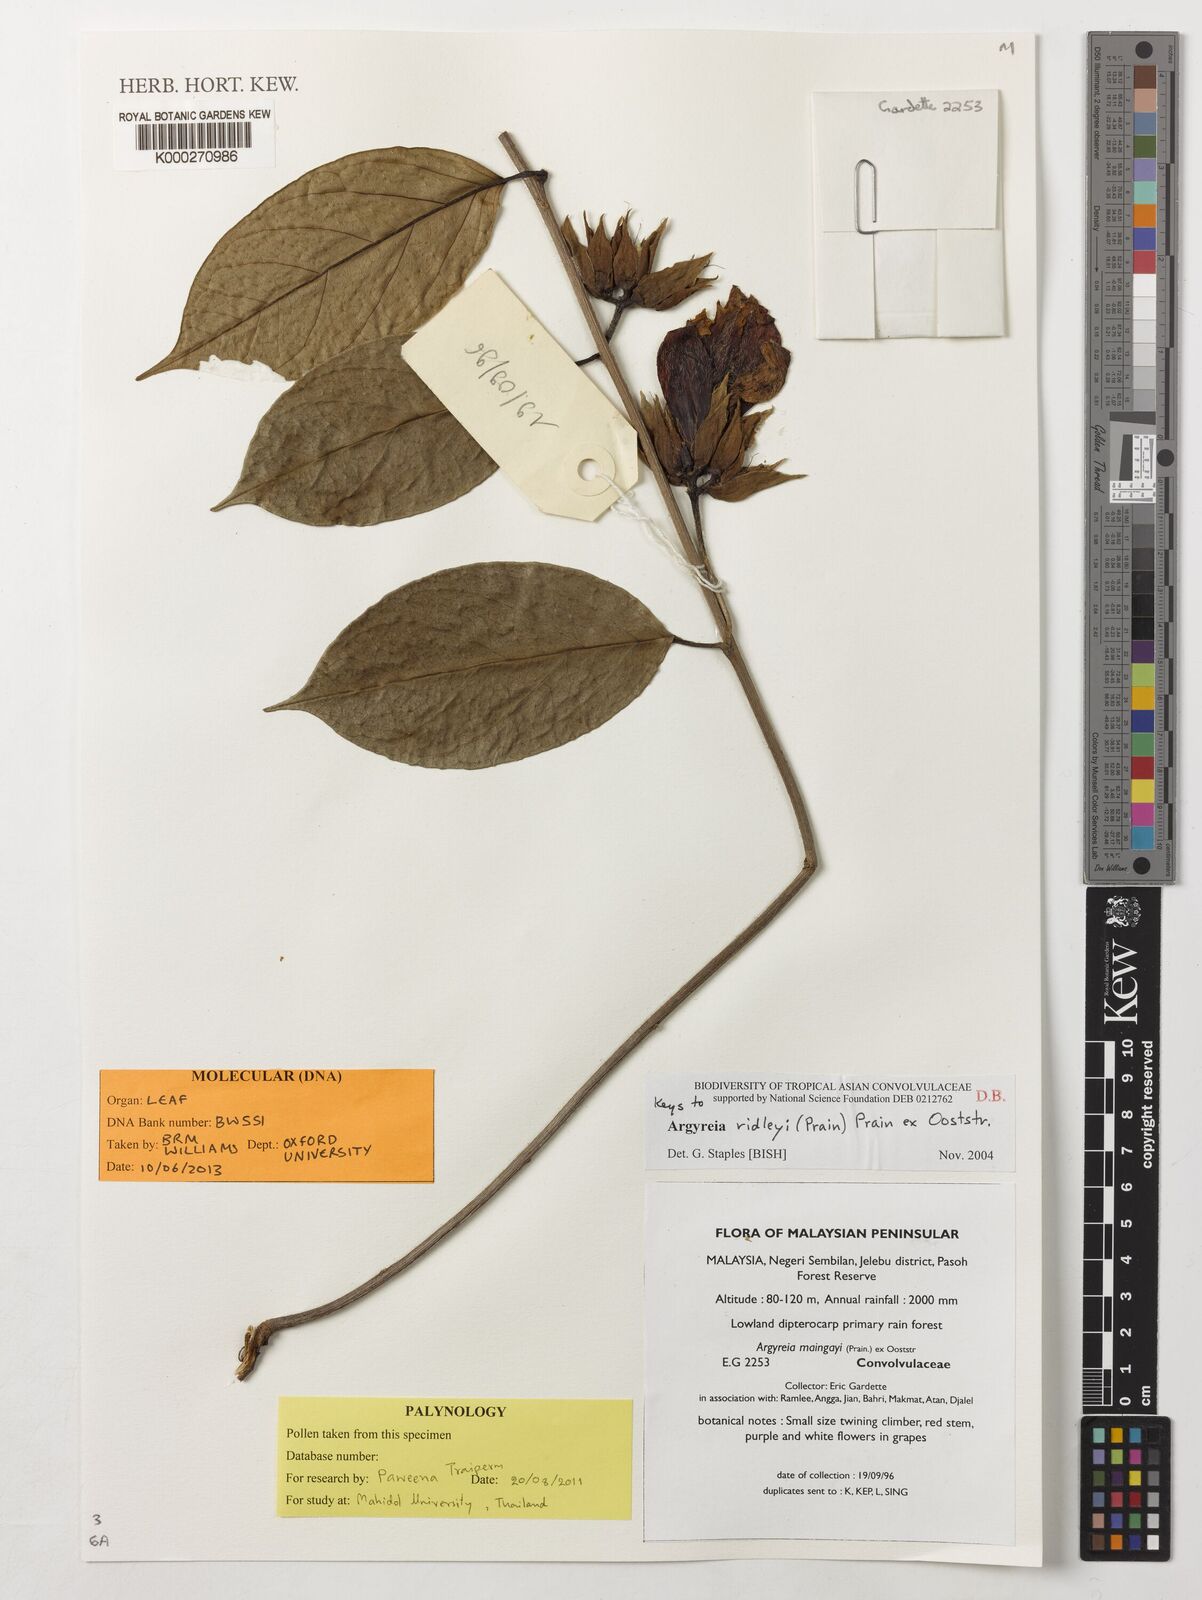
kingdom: Plantae
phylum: Tracheophyta
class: Magnoliopsida
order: Solanales
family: Convolvulaceae
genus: Argyreia
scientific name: Argyreia ridleyi
